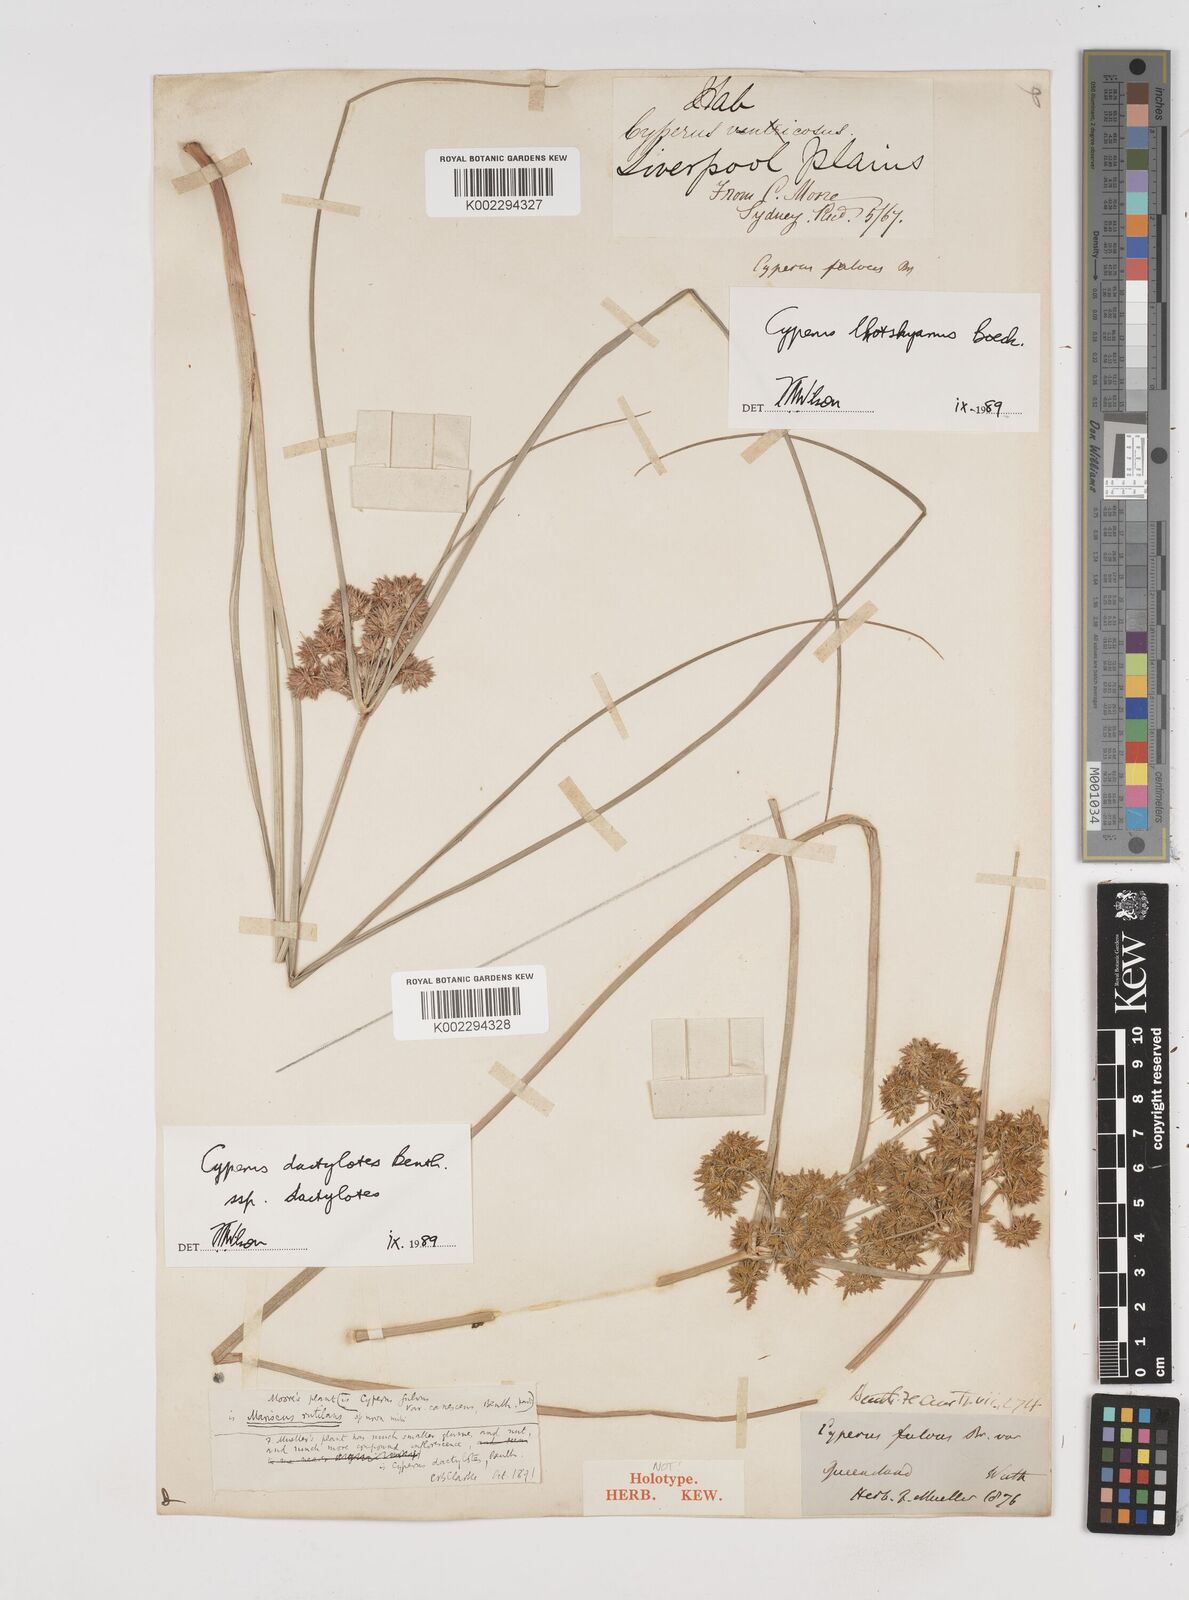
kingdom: Plantae
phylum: Tracheophyta
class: Liliopsida
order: Poales
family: Cyperaceae
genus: Cyperus
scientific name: Cyperus lhotskyanus
